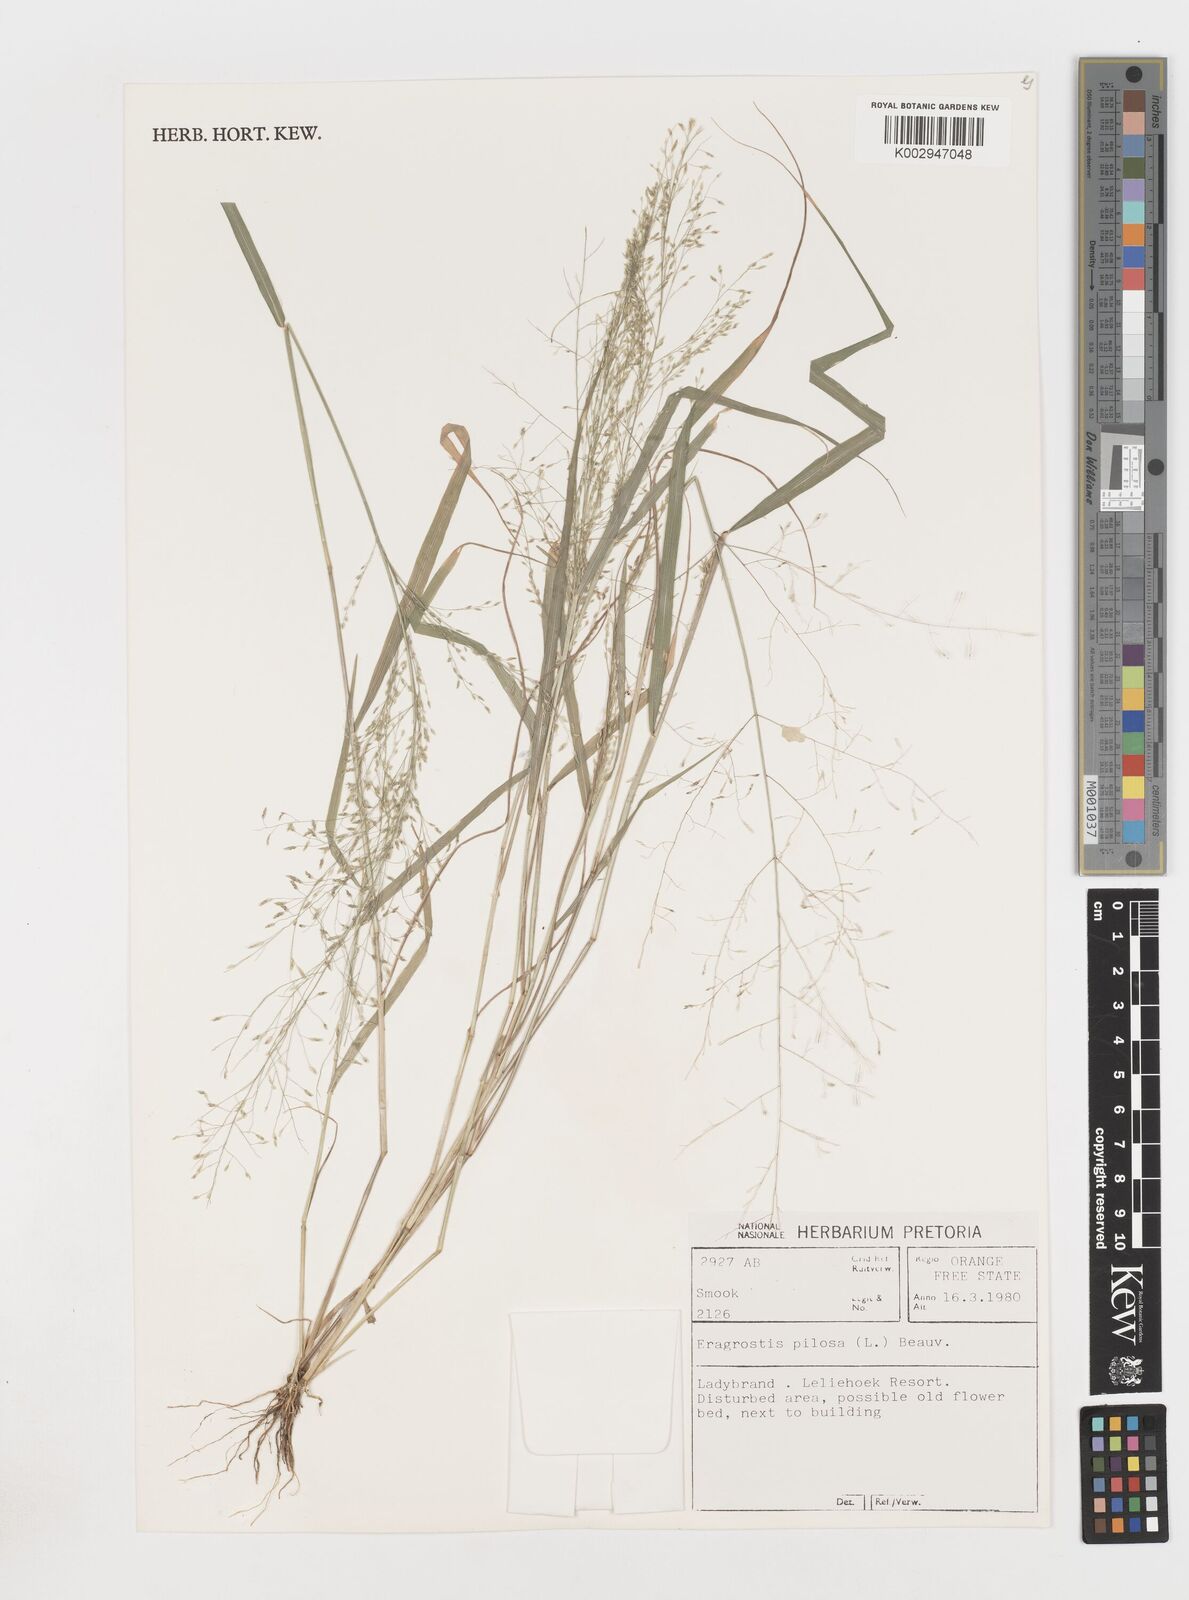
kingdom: Plantae
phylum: Tracheophyta
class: Liliopsida
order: Poales
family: Poaceae
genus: Eragrostis
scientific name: Eragrostis pilosa
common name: Indian lovegrass
